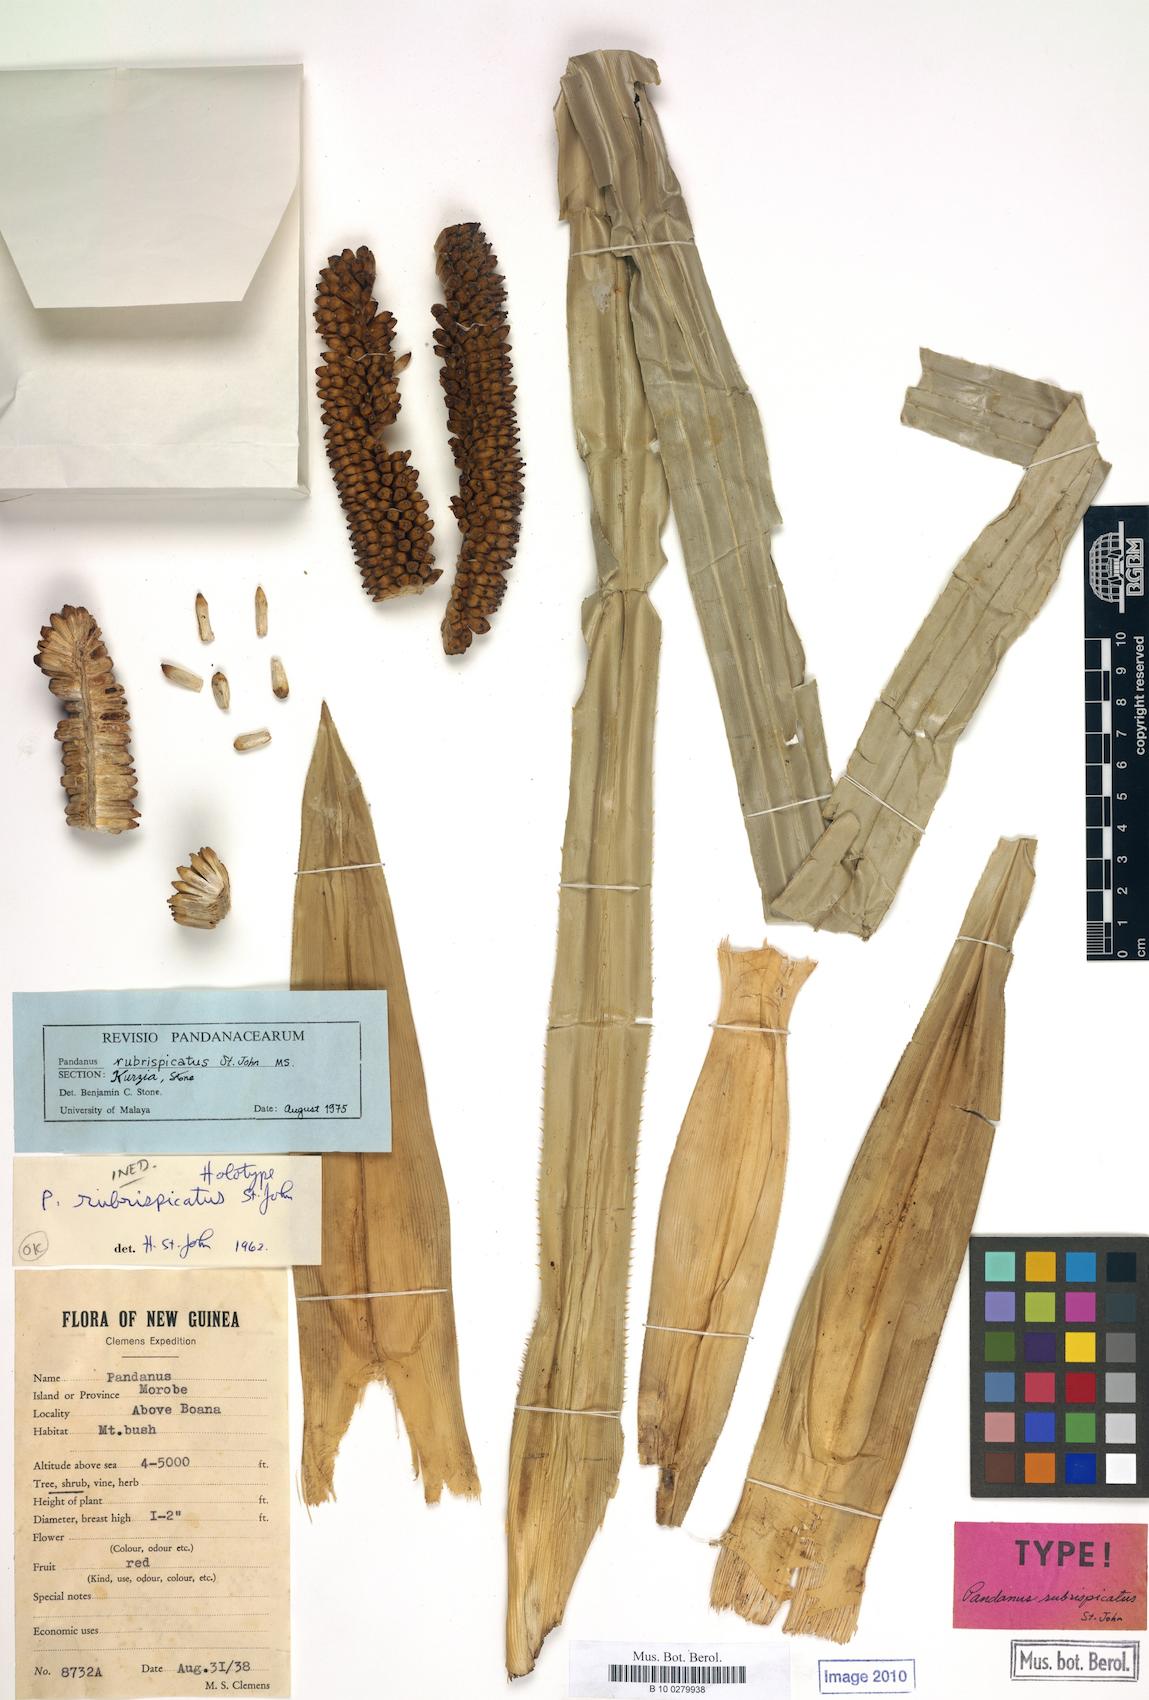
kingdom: Plantae
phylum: Tracheophyta
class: Liliopsida
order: Pandanales
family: Pandanaceae
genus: Pandanus
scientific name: Pandanus
